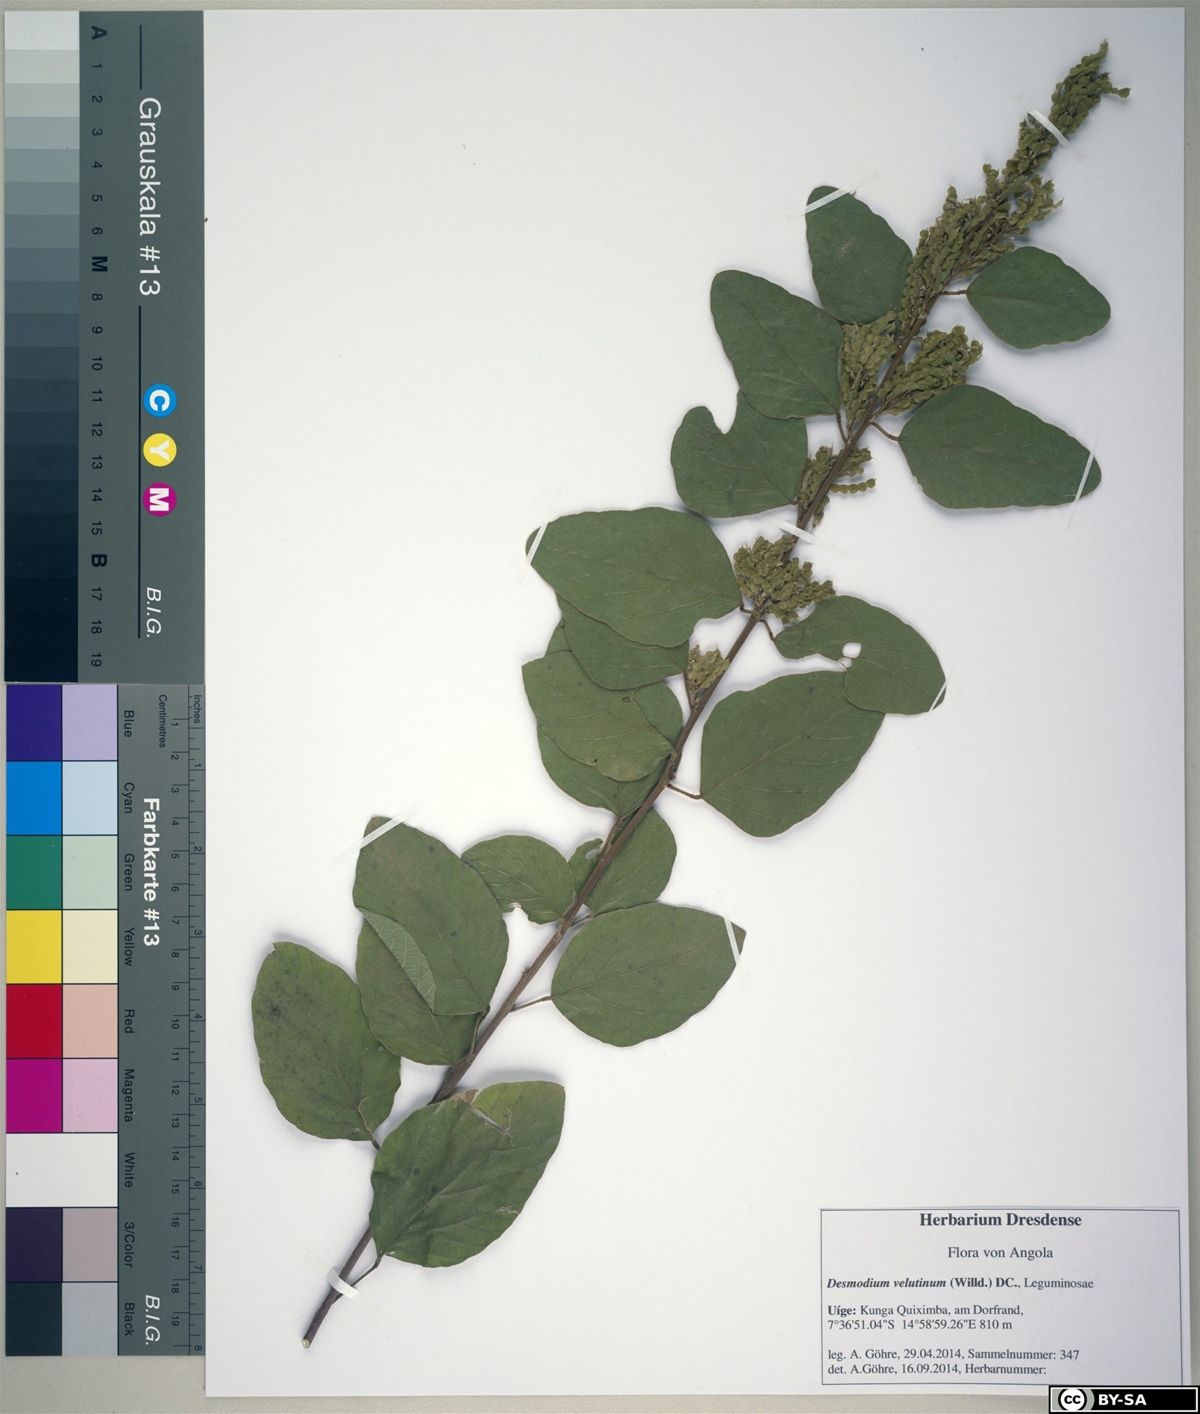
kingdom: Plantae
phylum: Tracheophyta
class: Magnoliopsida
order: Fabales
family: Fabaceae
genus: Polhillides
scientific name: Polhillides velutina
